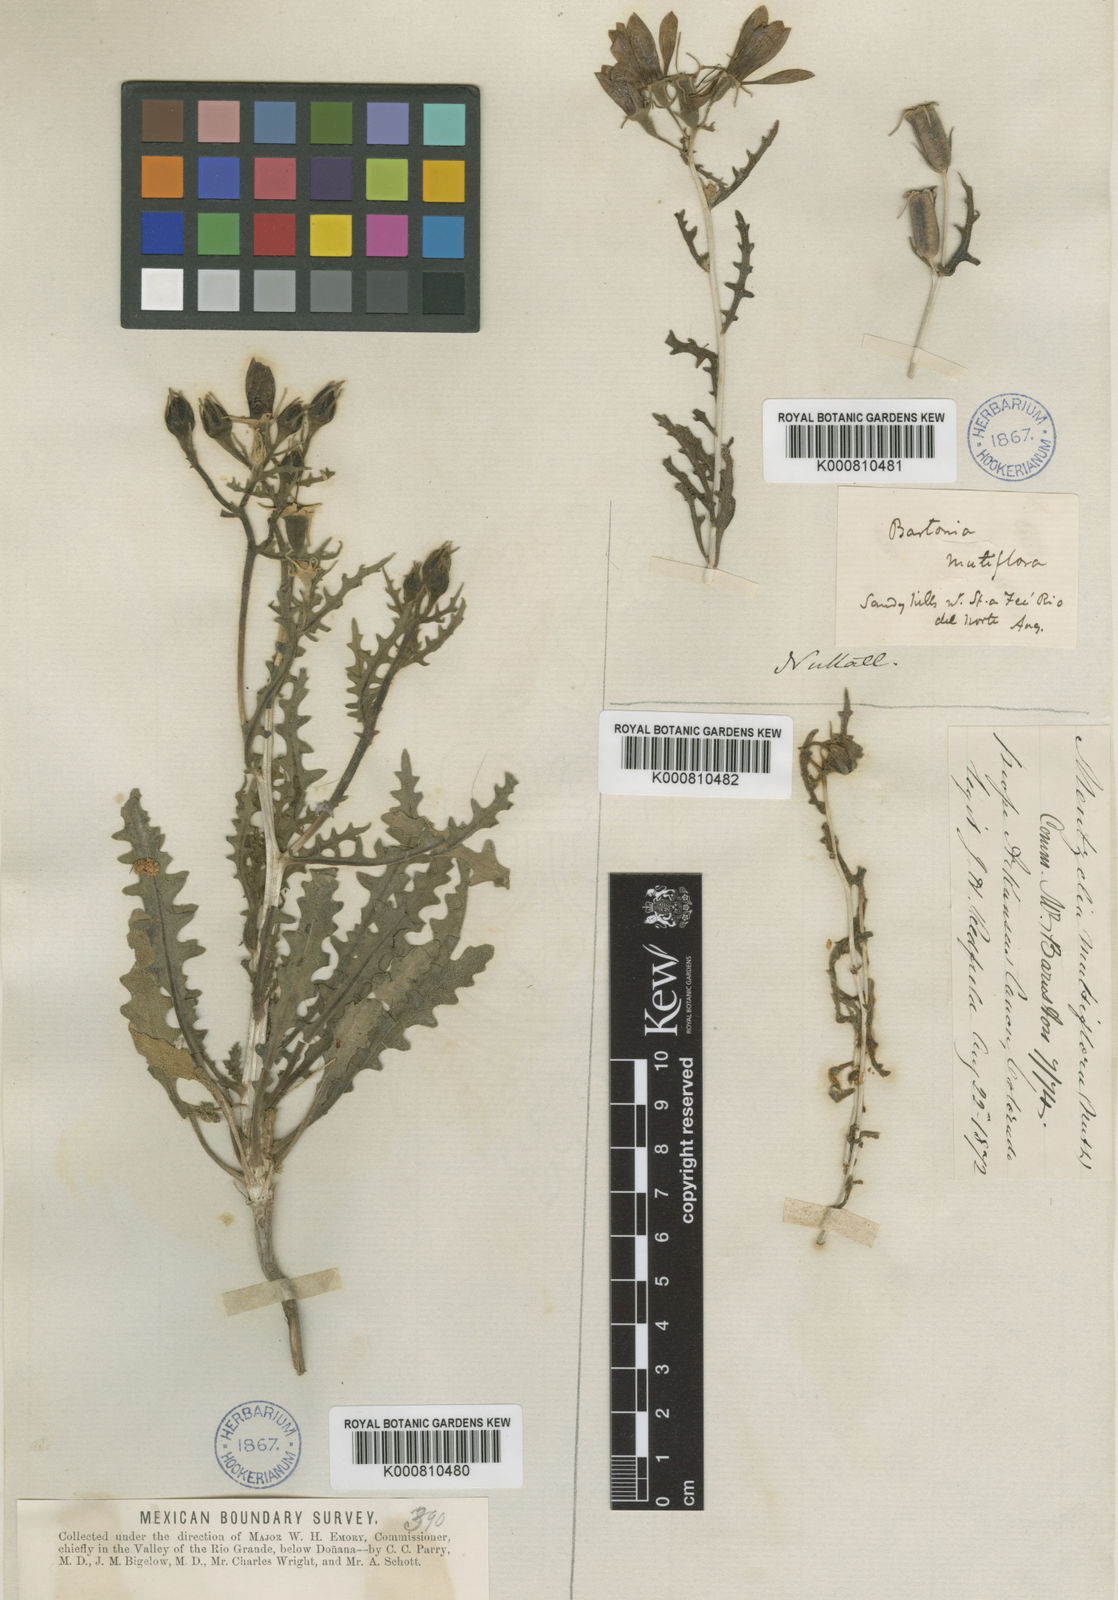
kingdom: Plantae
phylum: Tracheophyta
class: Magnoliopsida
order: Cornales
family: Loasaceae
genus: Mentzelia
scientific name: Mentzelia
